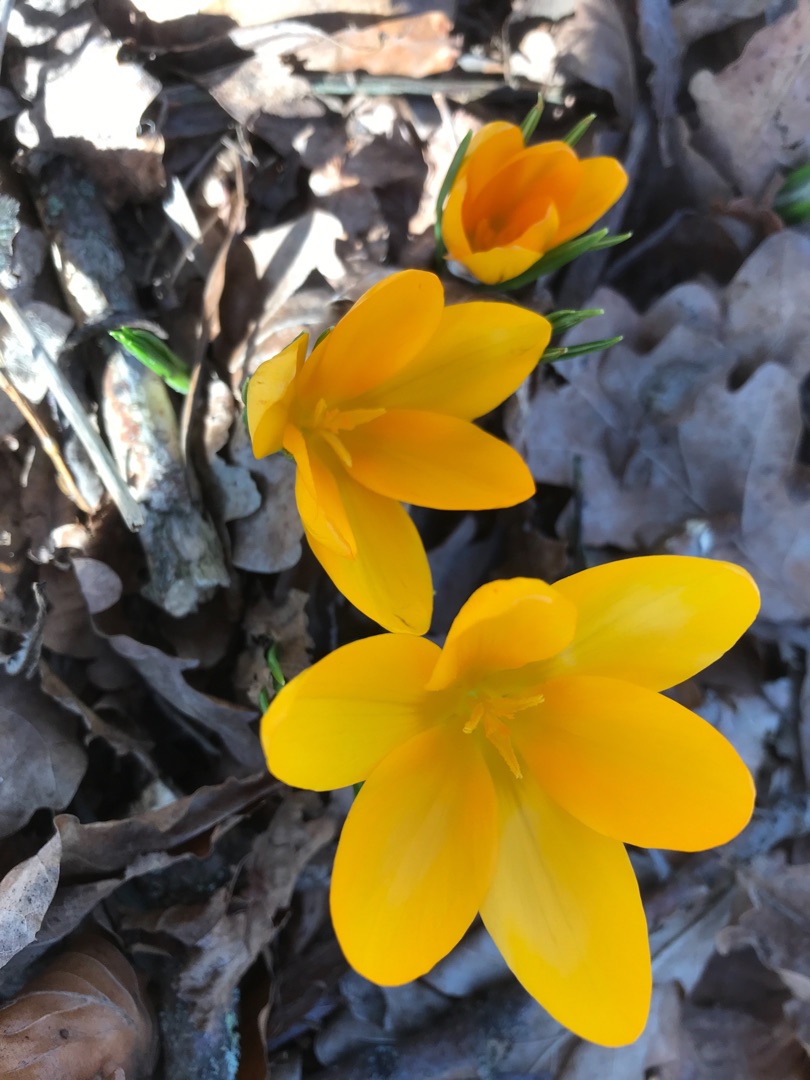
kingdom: Plantae
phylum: Tracheophyta
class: Liliopsida
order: Asparagales
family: Iridaceae
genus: Crocus
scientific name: Crocus luteus
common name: Gul krokus
